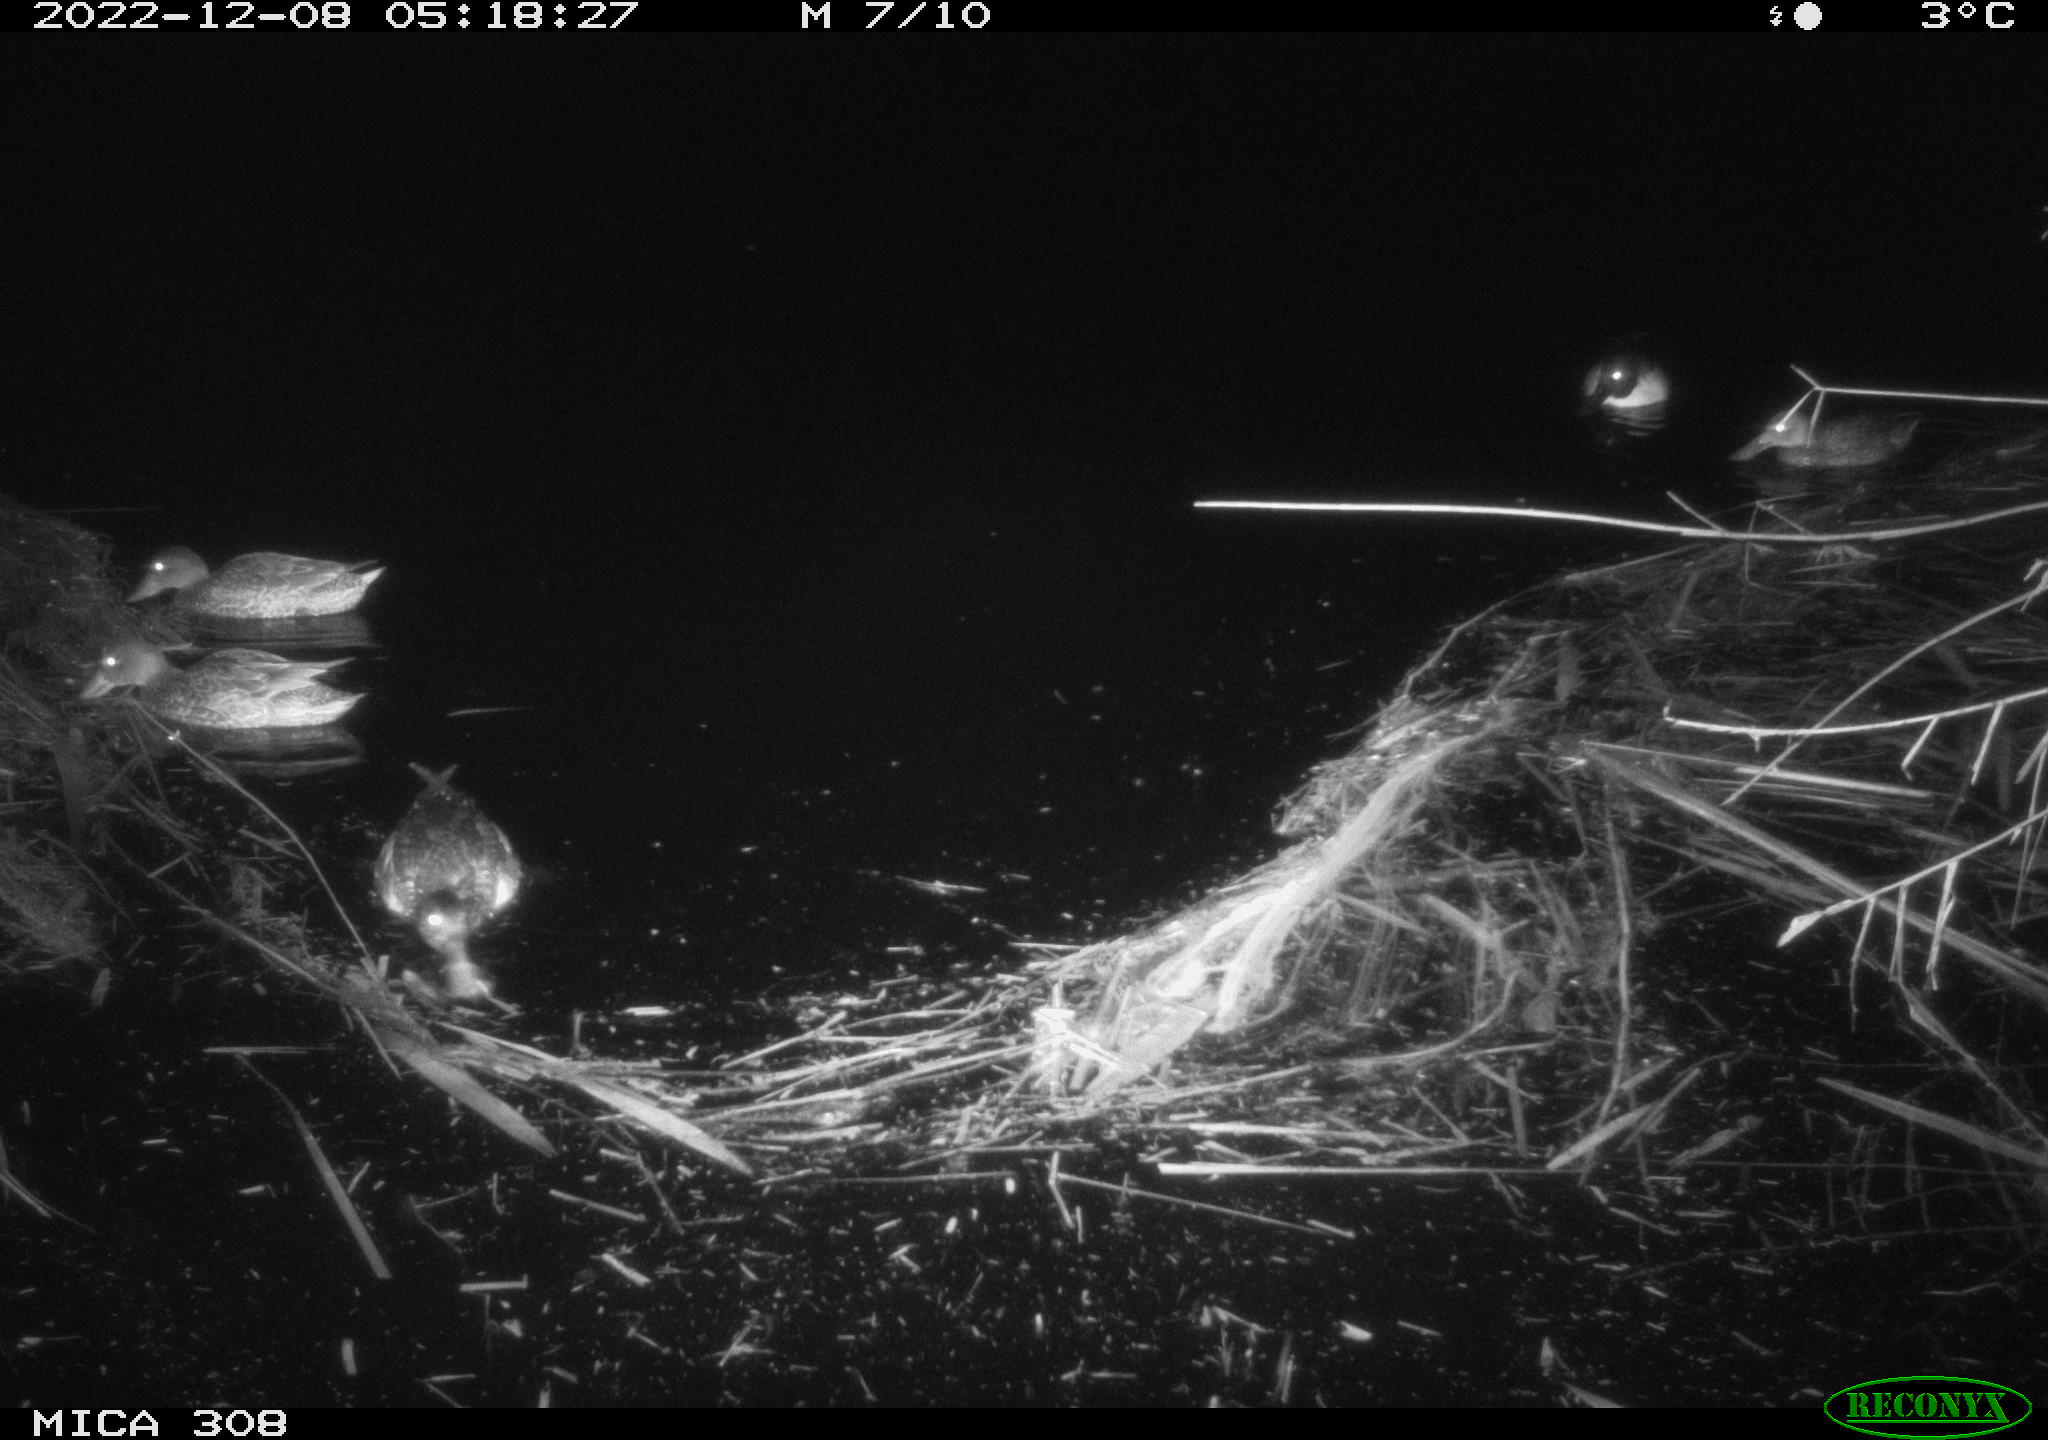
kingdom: Animalia
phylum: Chordata
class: Aves
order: Anseriformes
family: Anatidae
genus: Anas
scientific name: Anas
